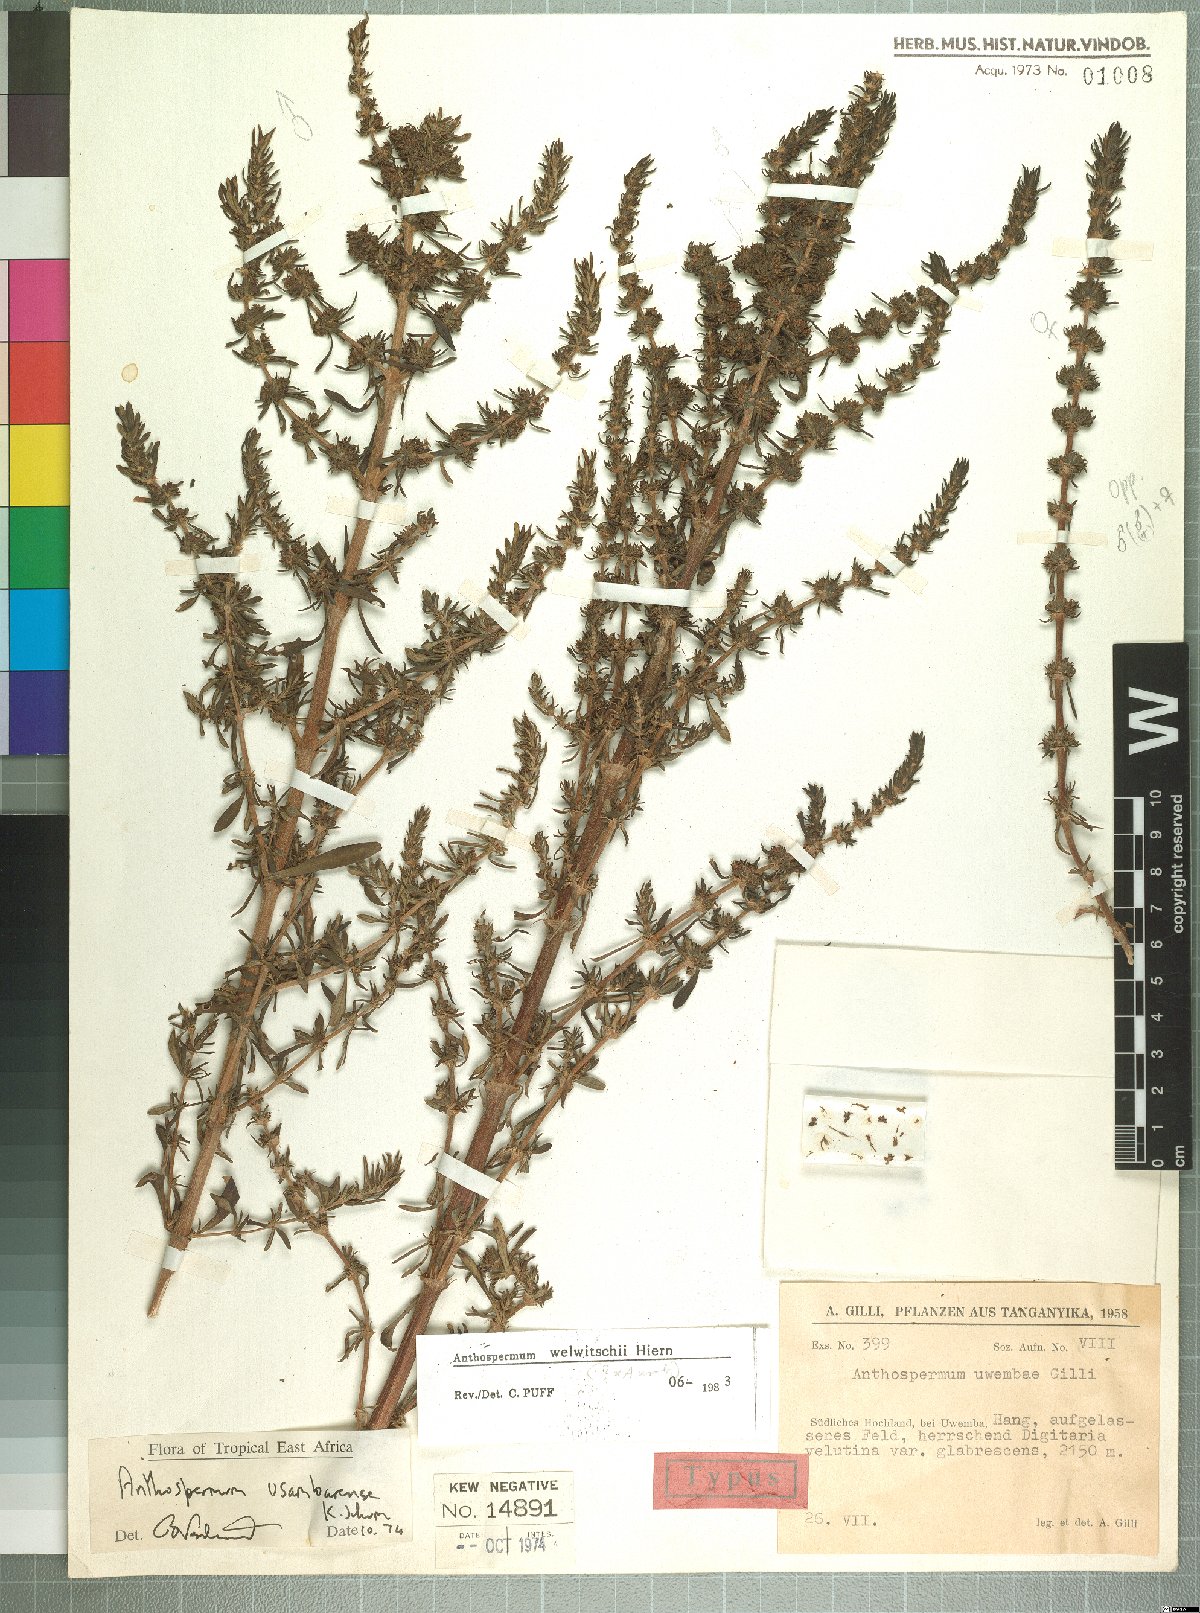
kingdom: Plantae
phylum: Tracheophyta
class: Magnoliopsida
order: Gentianales
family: Rubiaceae
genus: Anthospermum
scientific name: Anthospermum welwitschii
